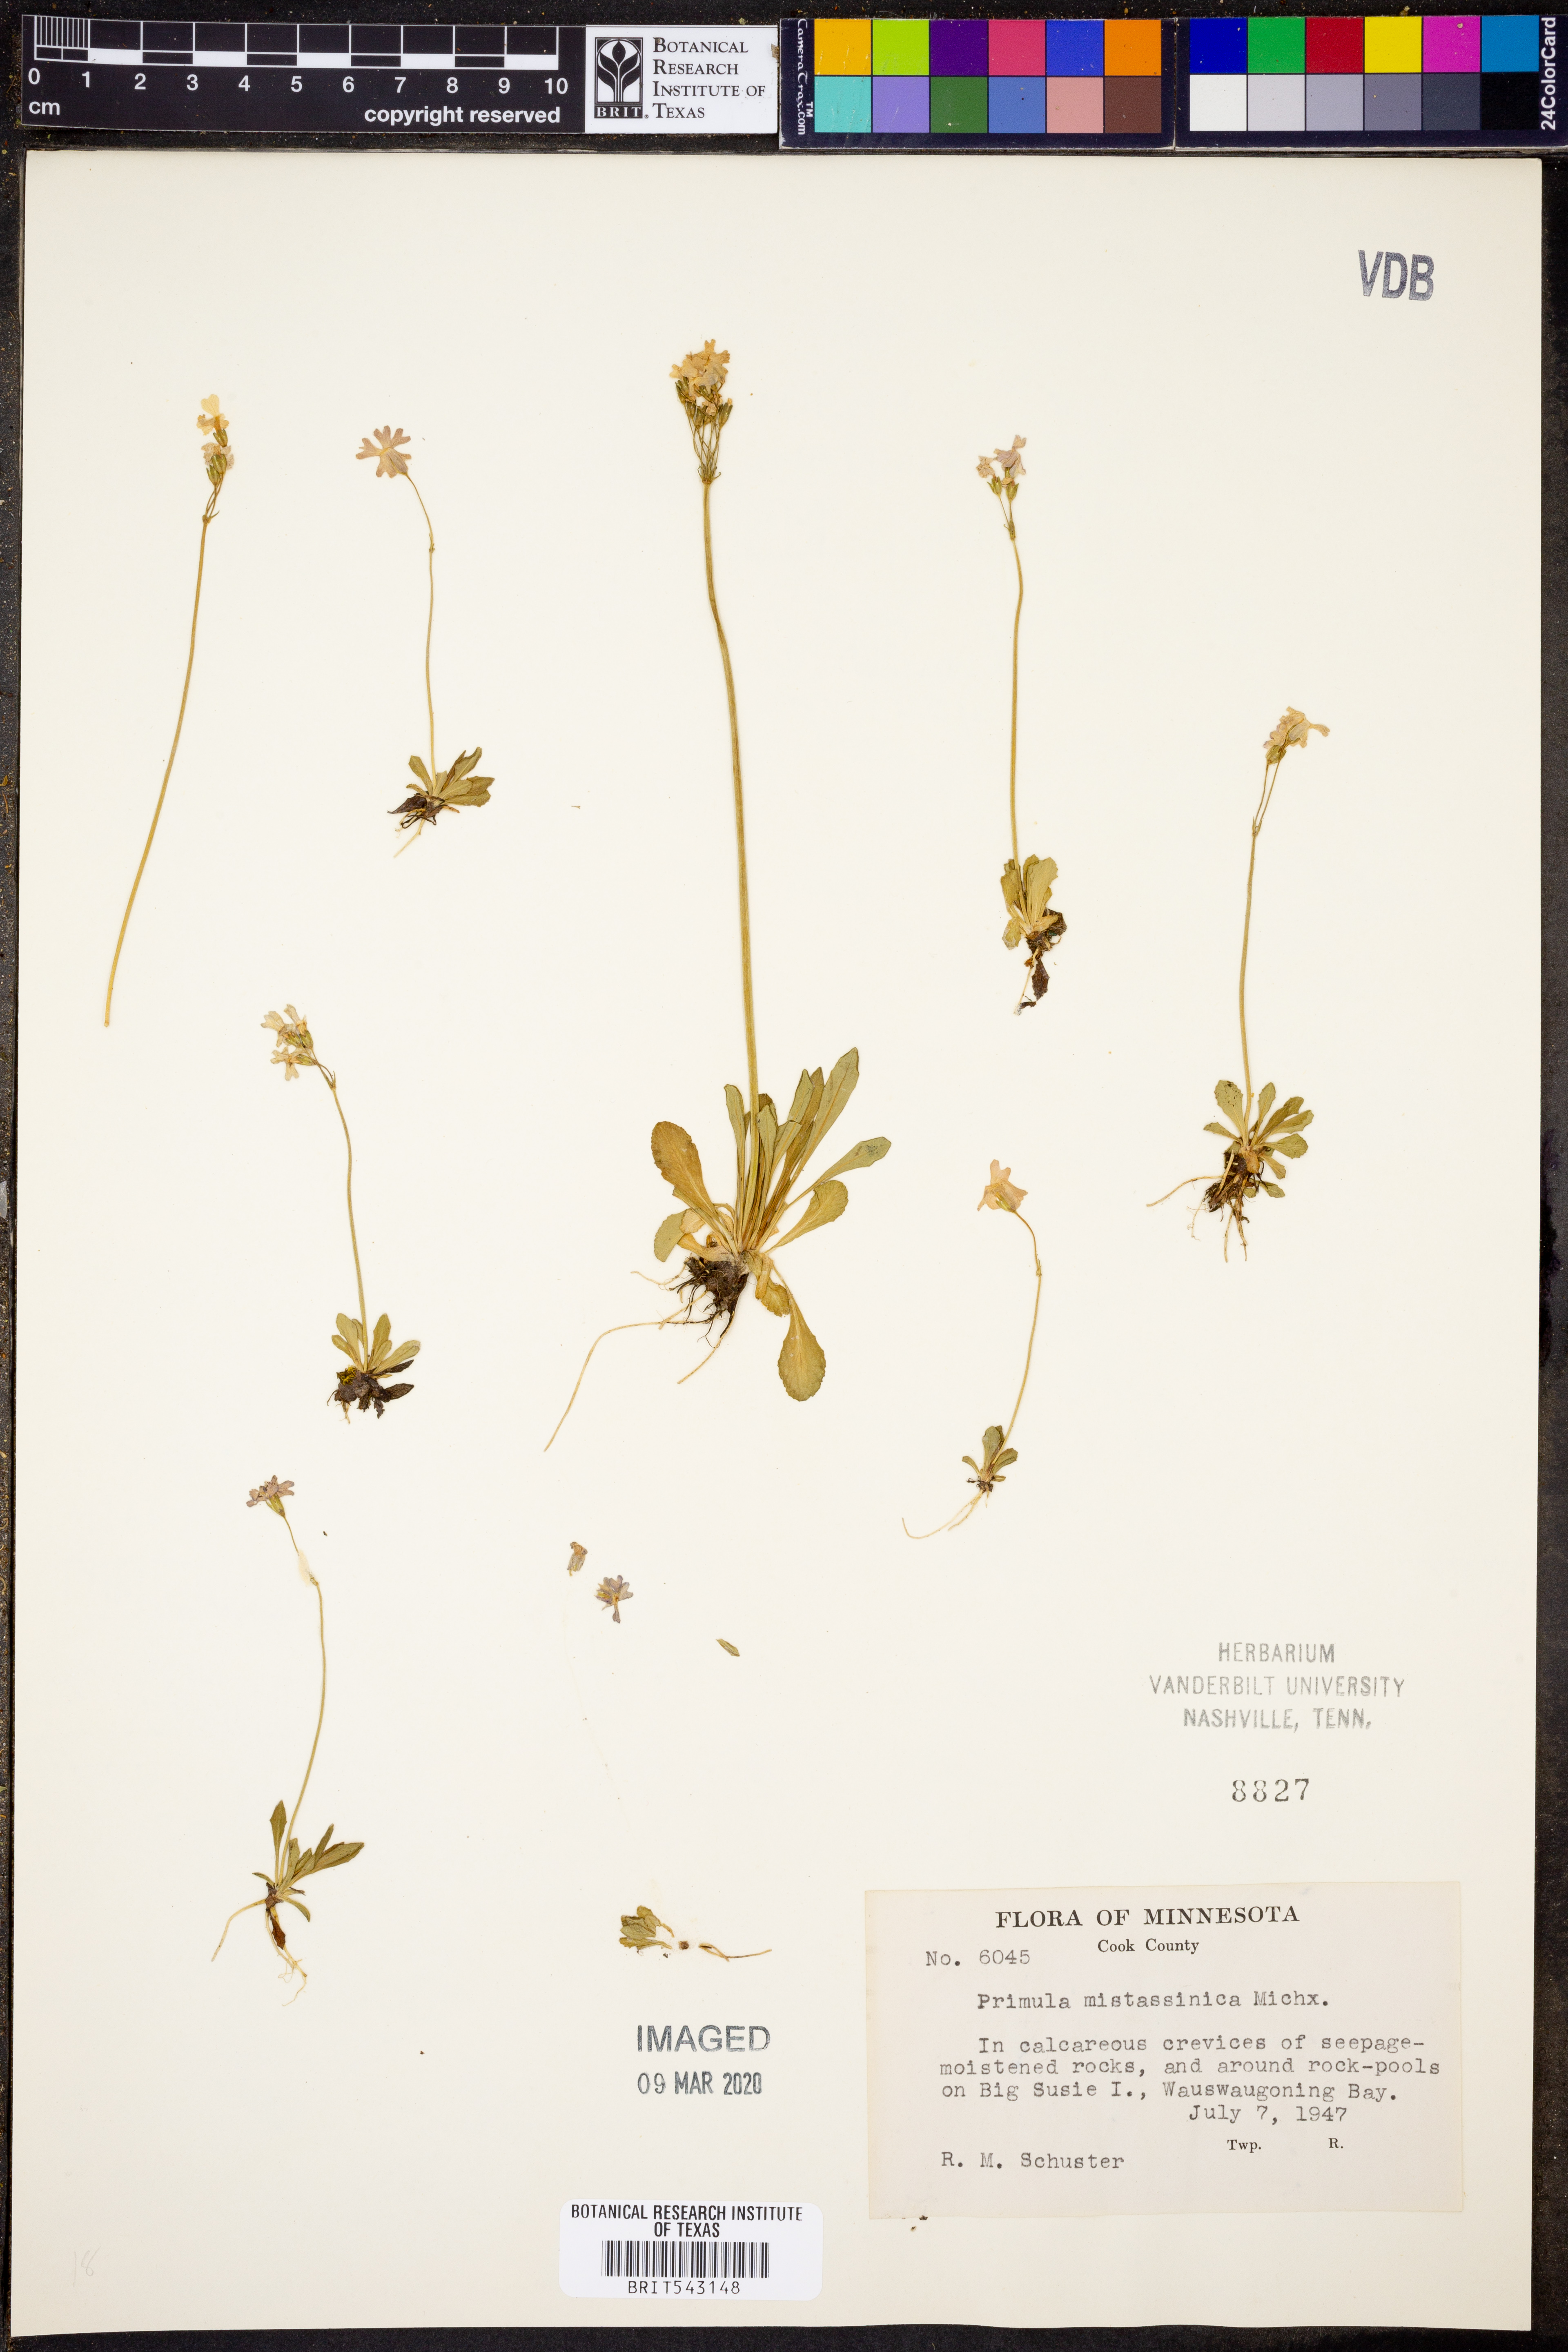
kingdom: Plantae
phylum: Tracheophyta
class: Magnoliopsida
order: Ericales
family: Primulaceae
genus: Primula
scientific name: Primula mistassinica
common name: Bird's-eye primrose
